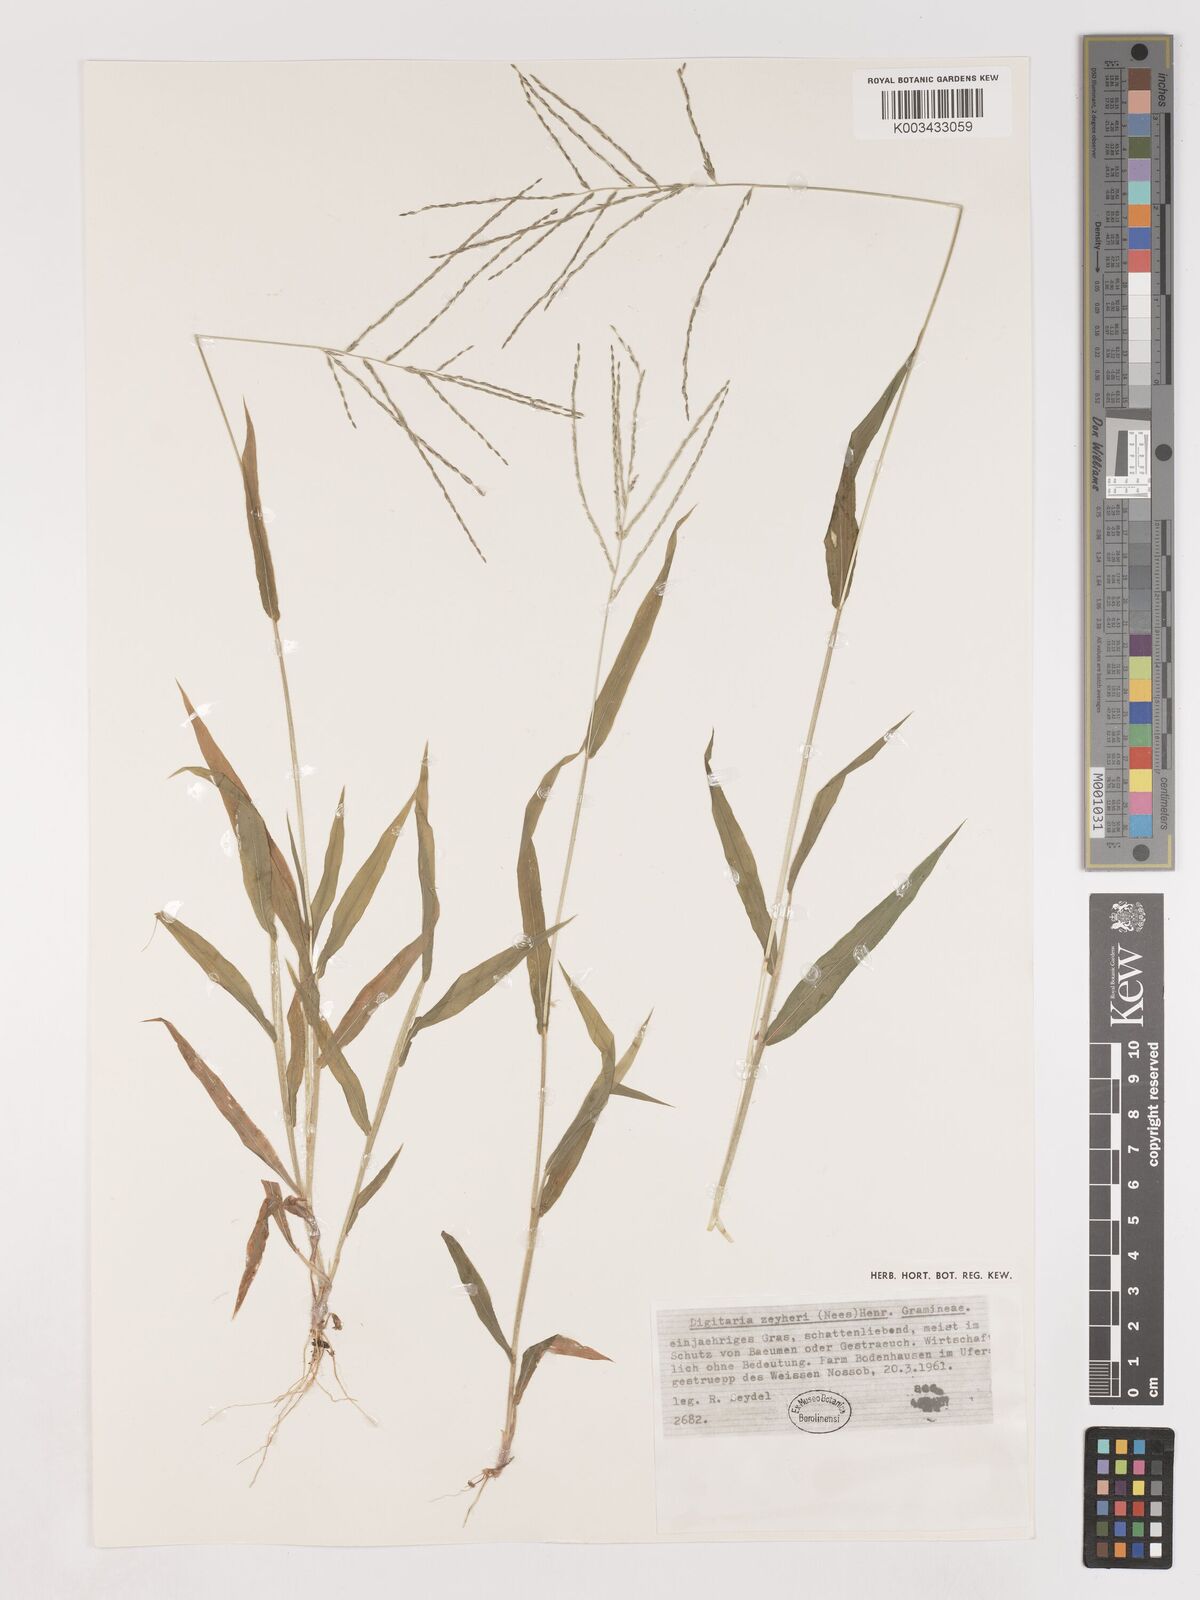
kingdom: Plantae
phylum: Tracheophyta
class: Liliopsida
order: Poales
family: Poaceae
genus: Digitaria
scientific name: Digitaria velutina
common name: Long-plume finger grass
